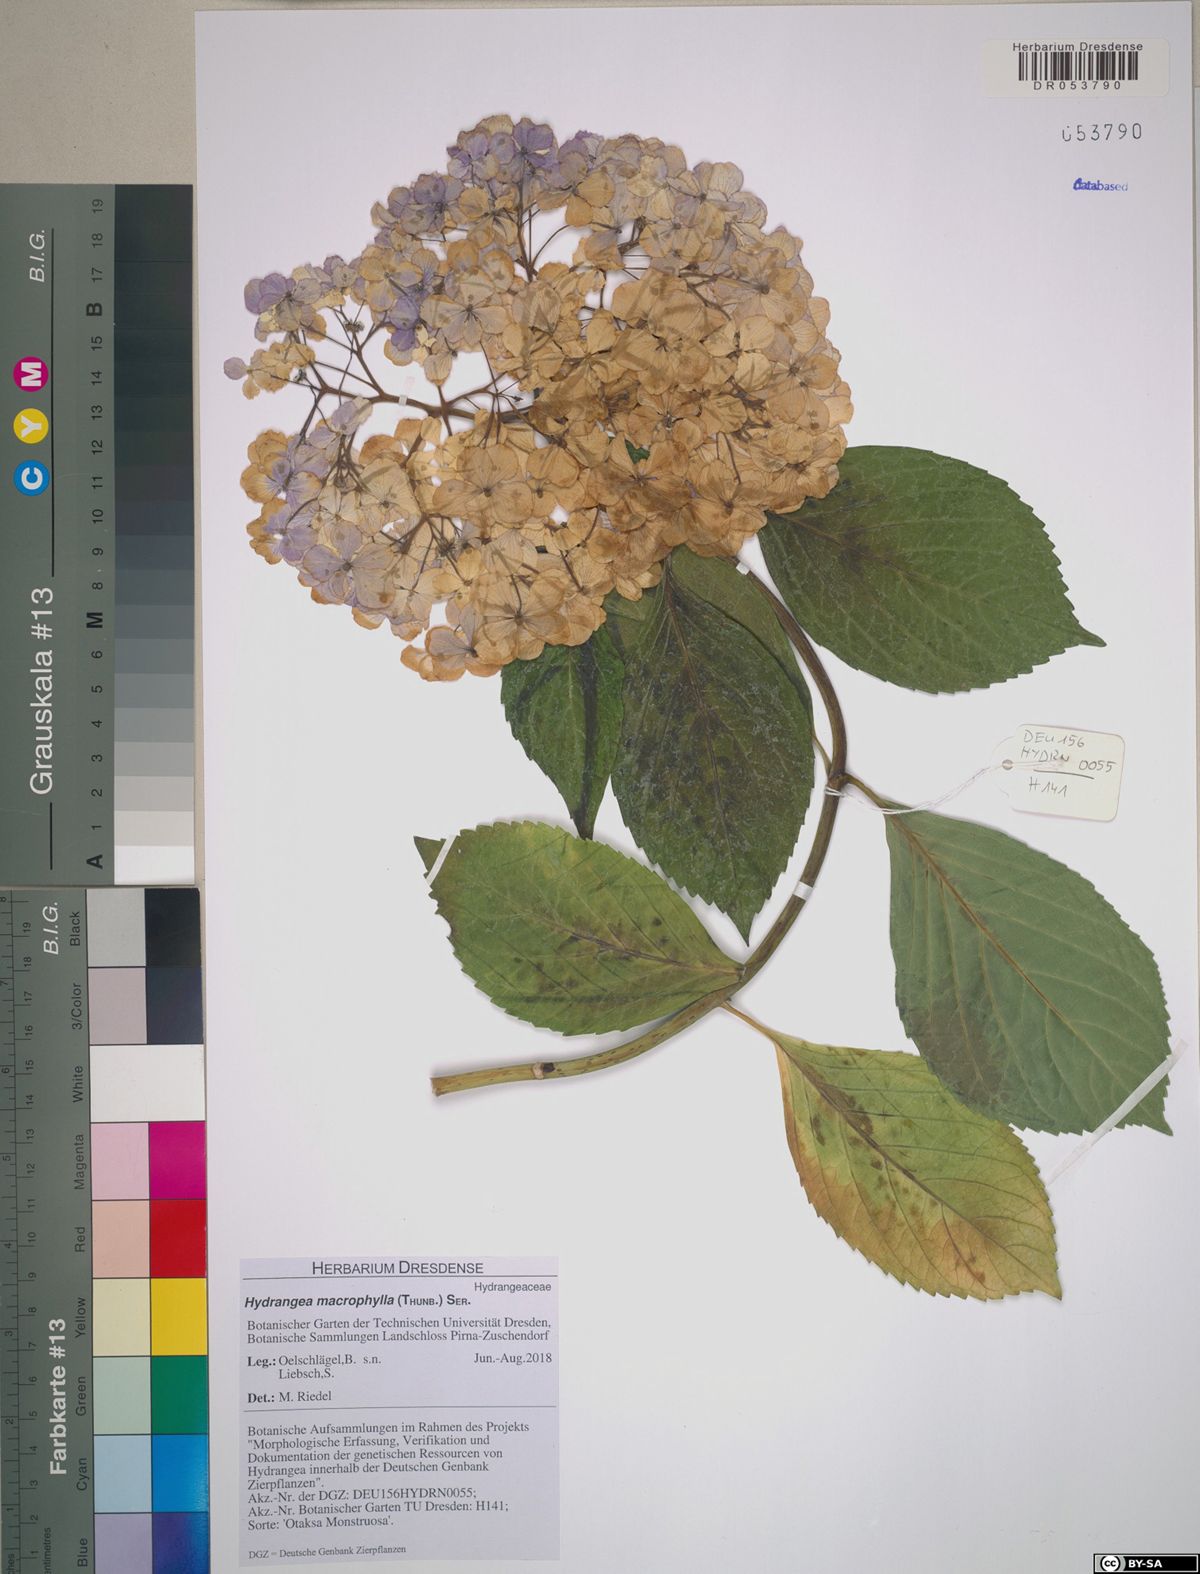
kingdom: Plantae
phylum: Tracheophyta
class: Magnoliopsida
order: Cornales
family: Hydrangeaceae
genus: Hydrangea
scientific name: Hydrangea macrophylla
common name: Hydrangea
